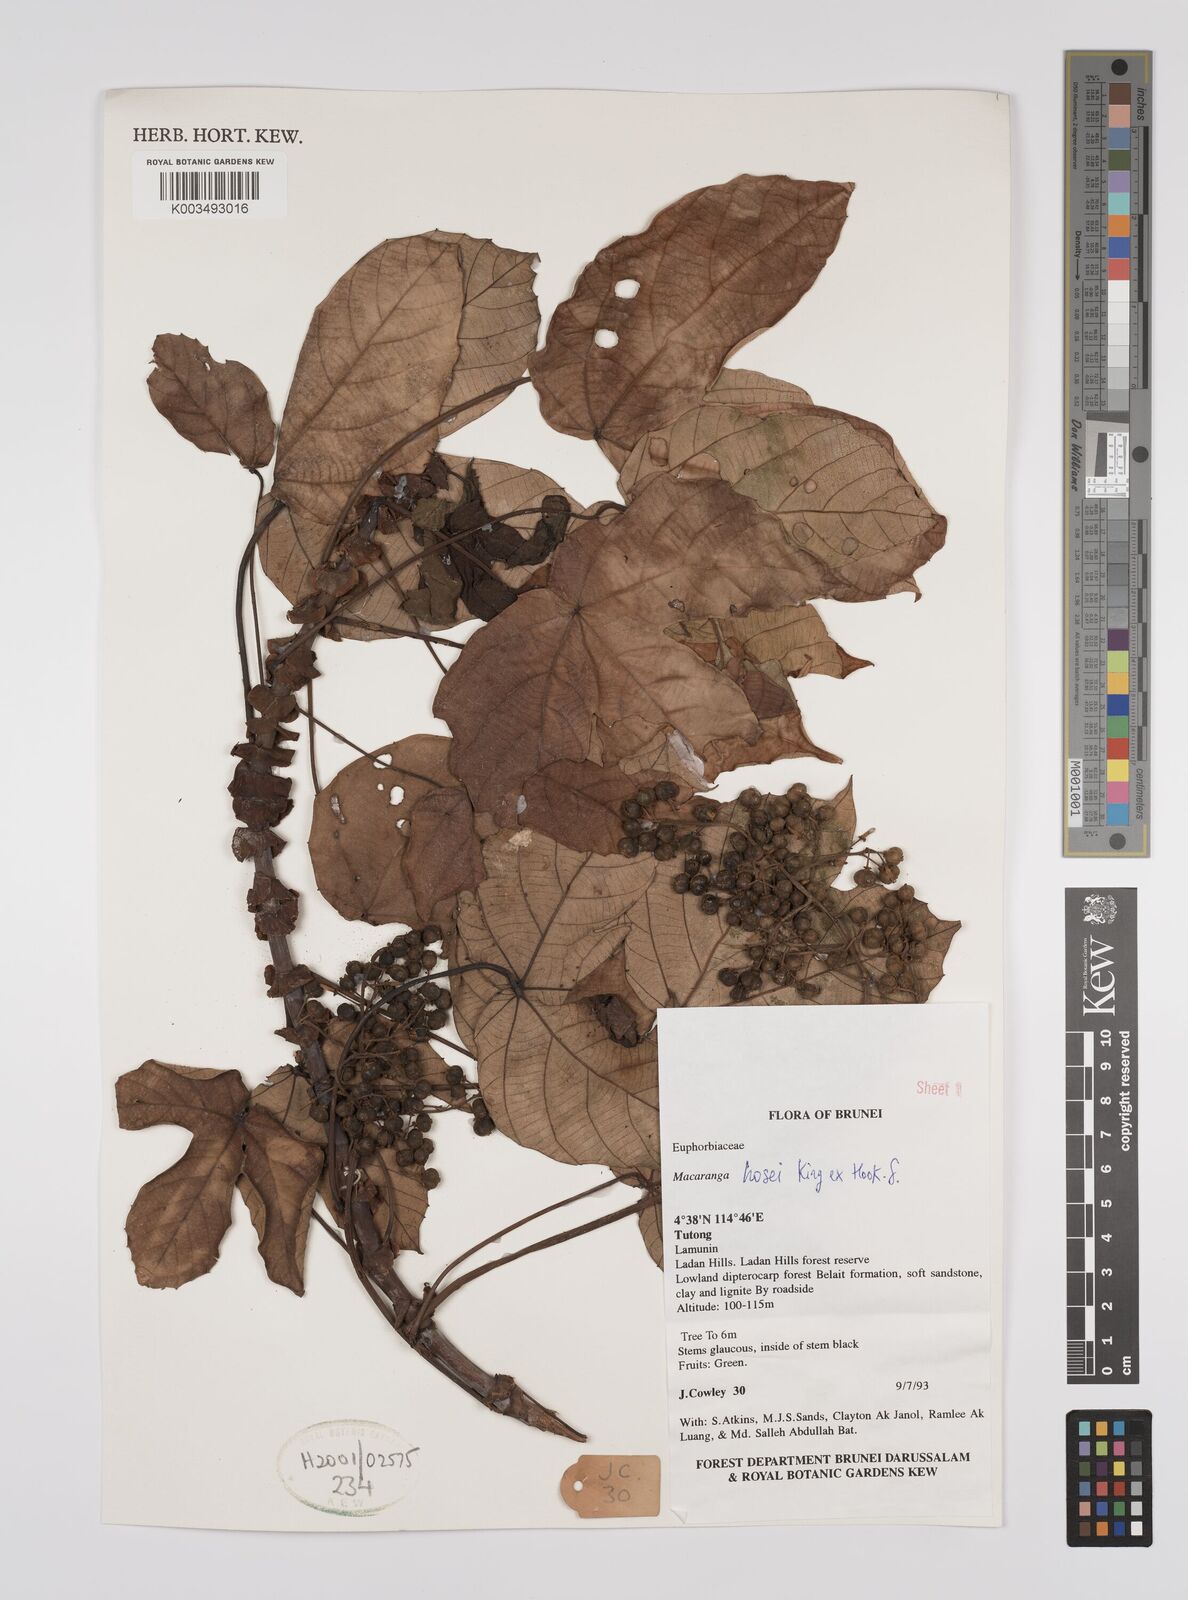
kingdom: Plantae
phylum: Tracheophyta
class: Magnoliopsida
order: Malpighiales
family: Euphorbiaceae
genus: Macaranga
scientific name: Macaranga hosei
